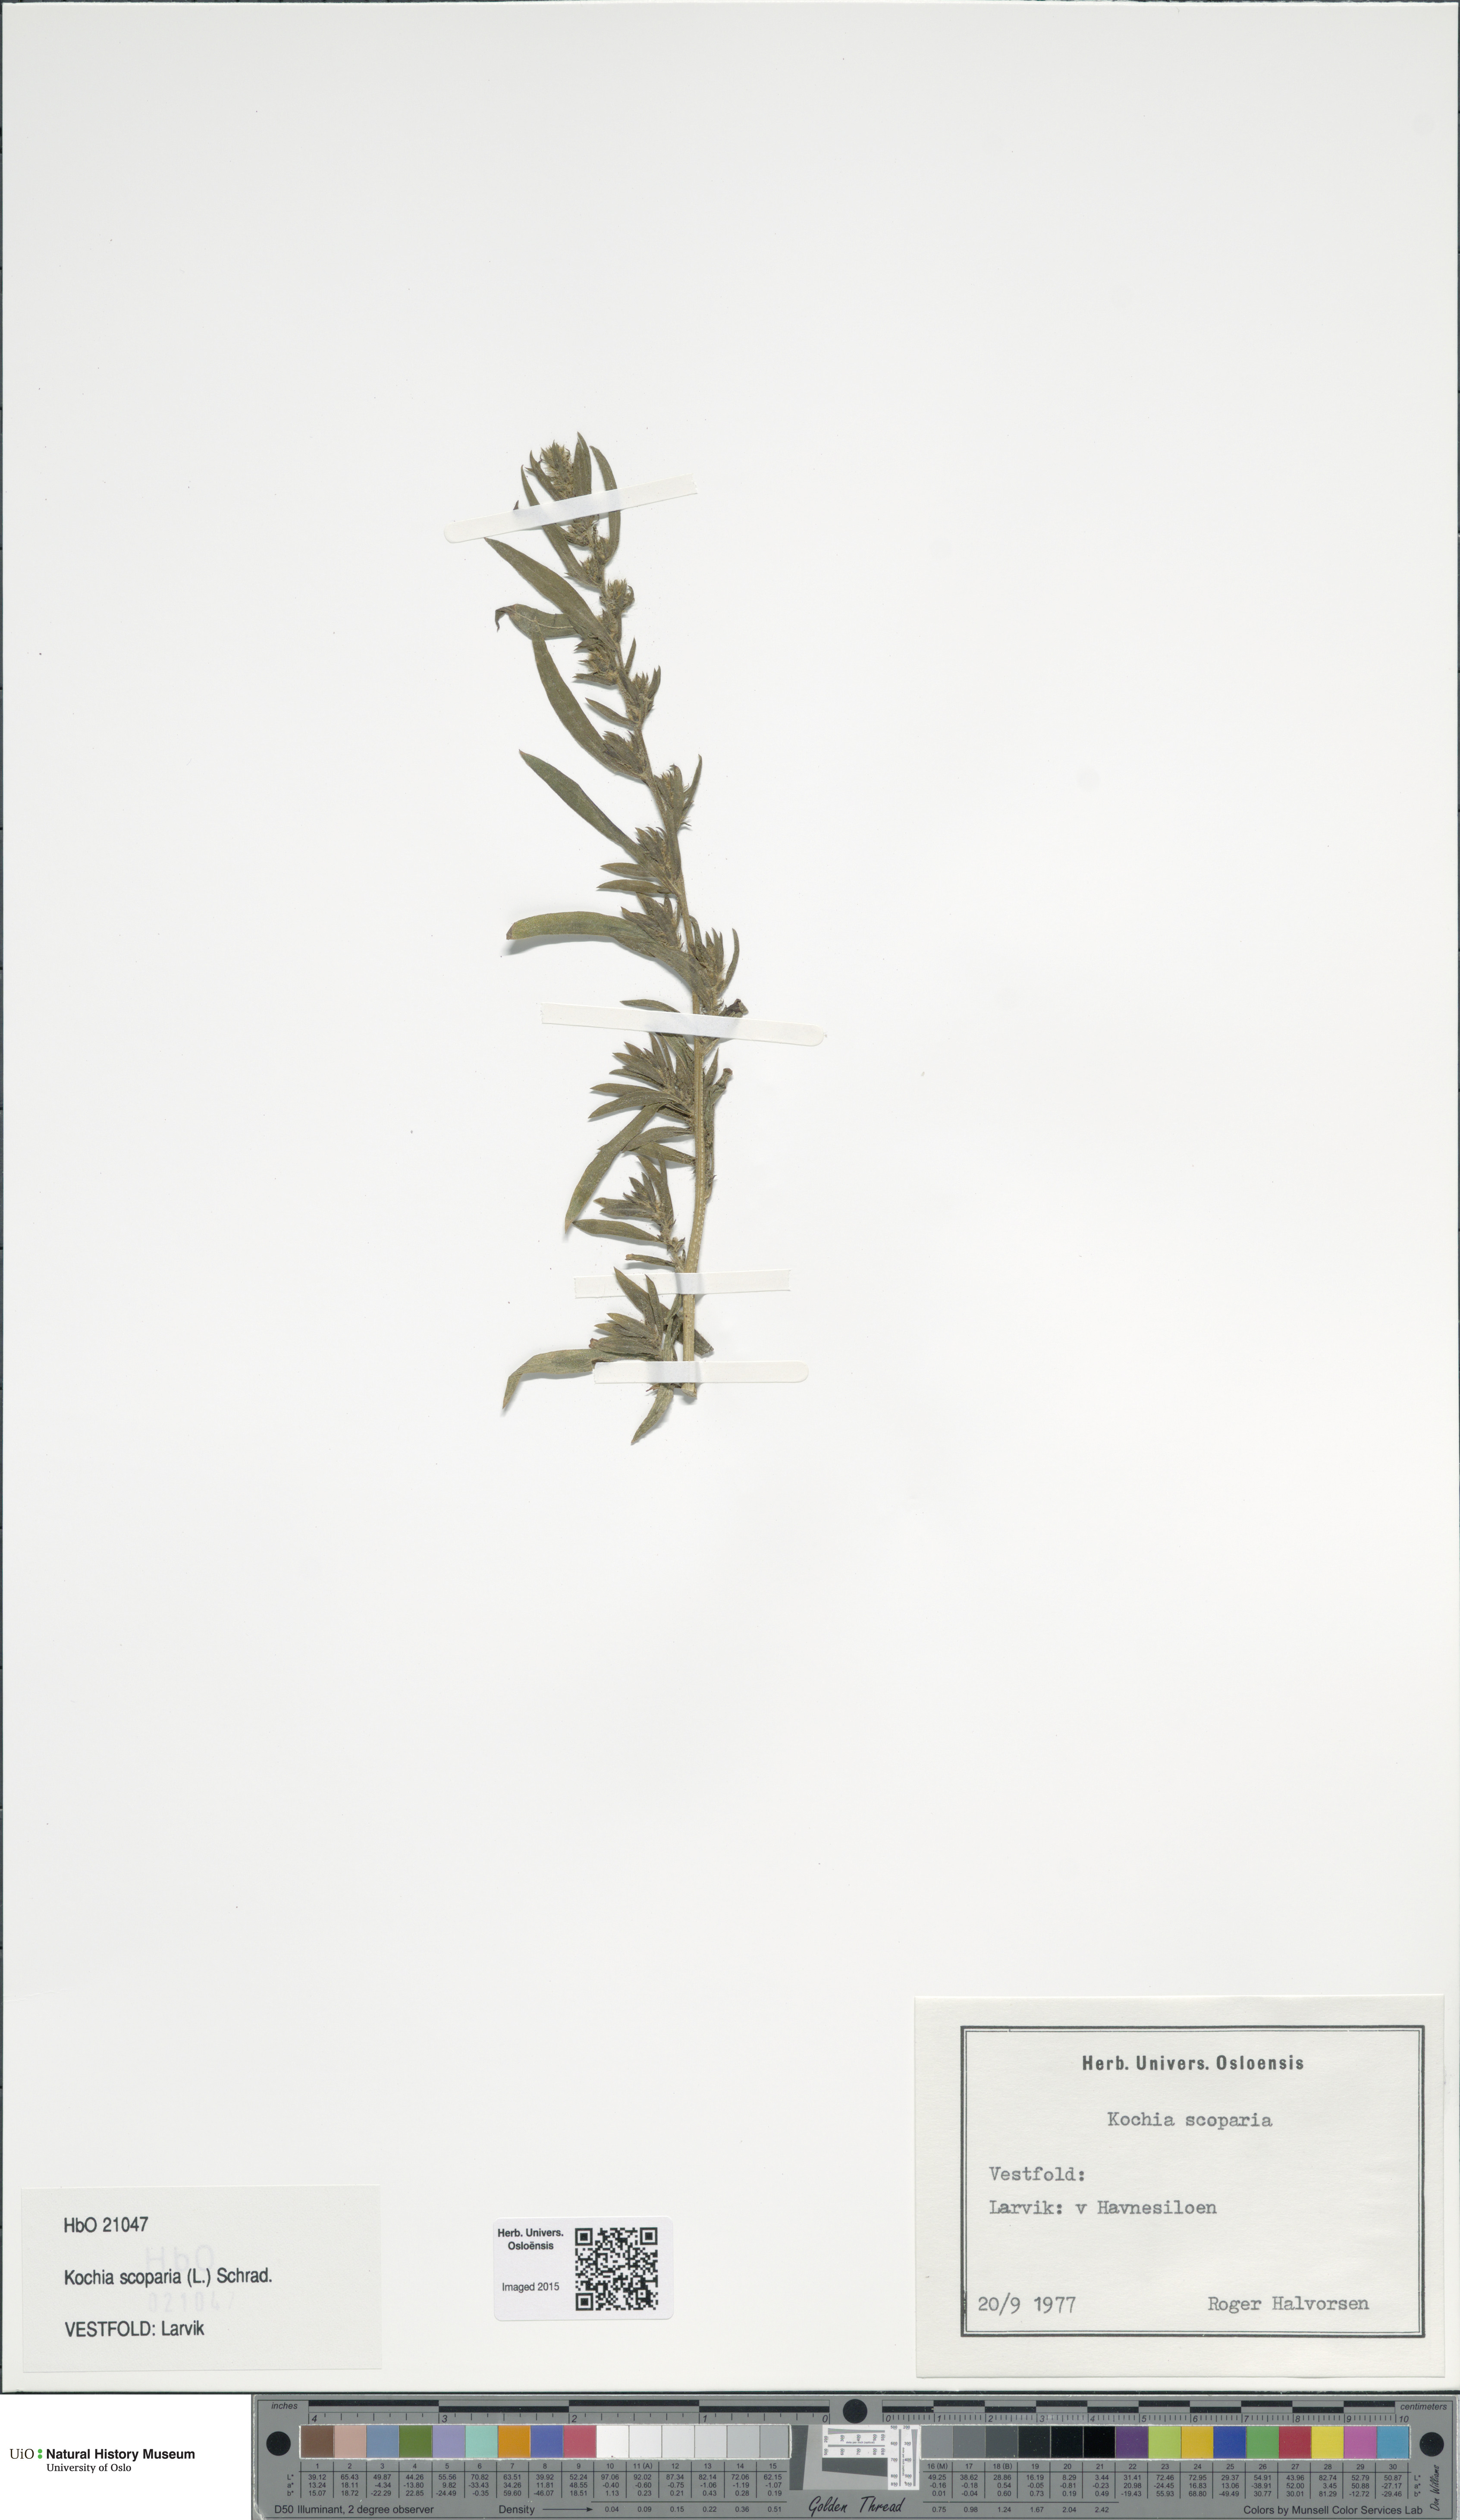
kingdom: Plantae
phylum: Tracheophyta
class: Magnoliopsida
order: Caryophyllales
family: Amaranthaceae
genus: Bassia
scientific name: Bassia scoparia
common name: Belvedere
